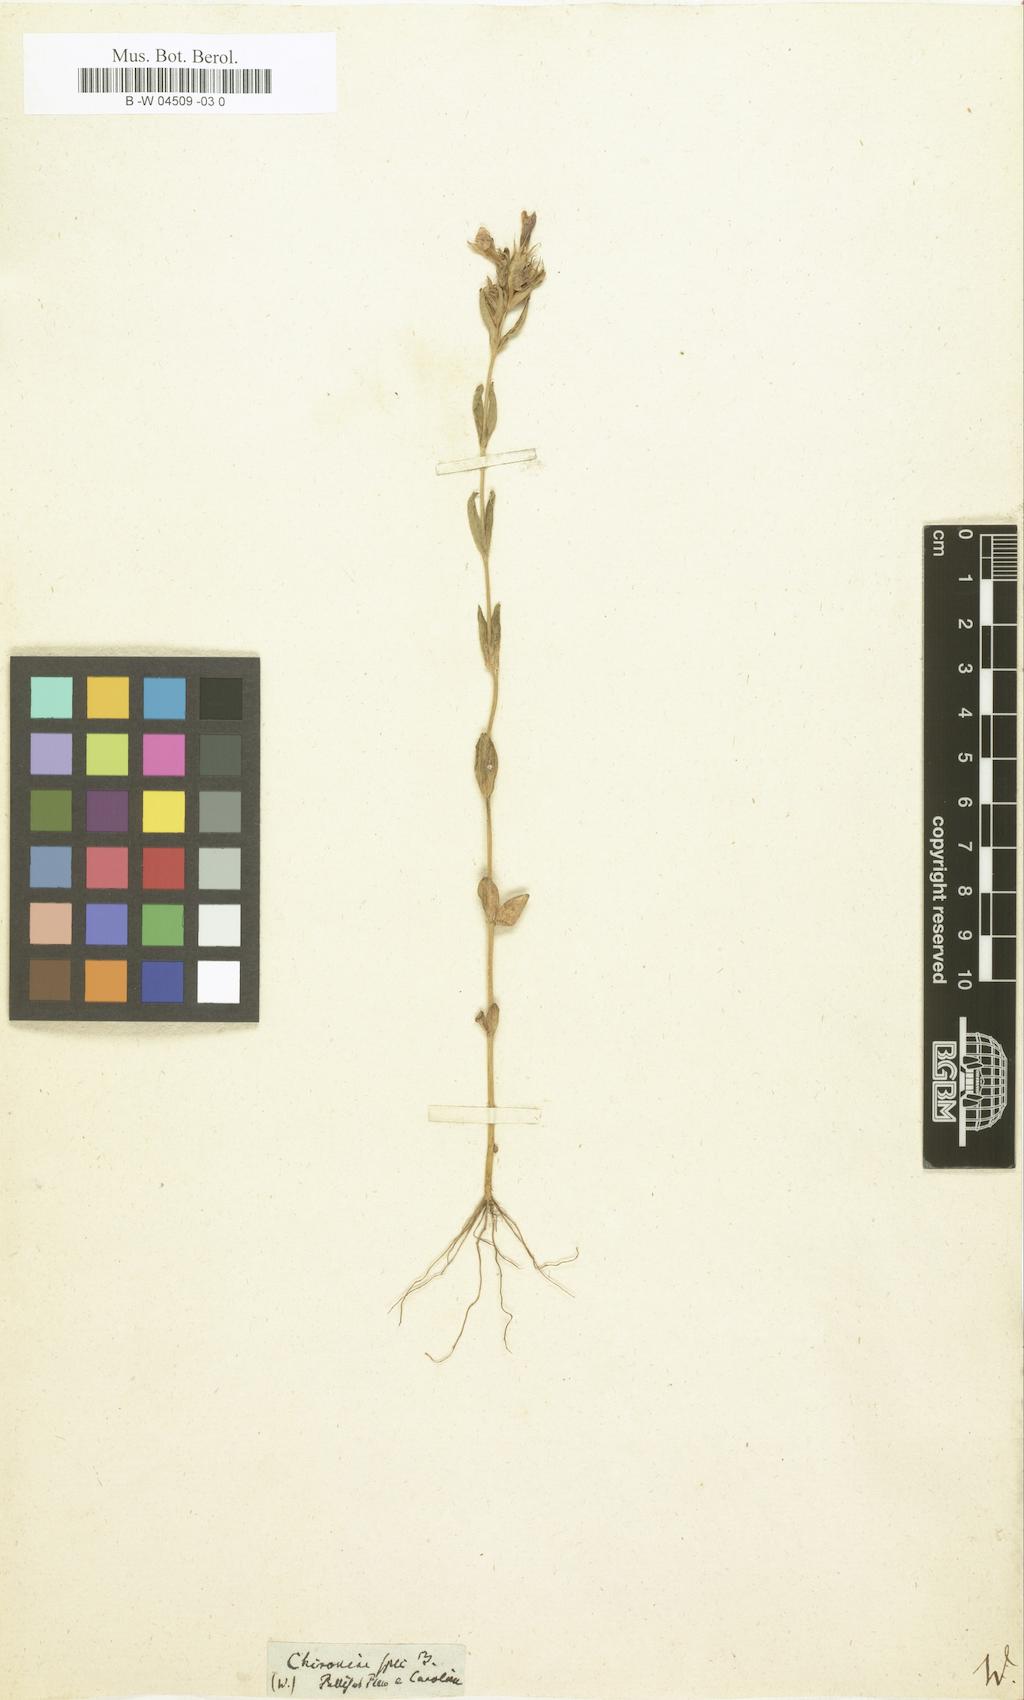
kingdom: Plantae
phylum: Tracheophyta
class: Magnoliopsida
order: Gentianales
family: Gentianaceae
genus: Chironia
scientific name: Chironia
